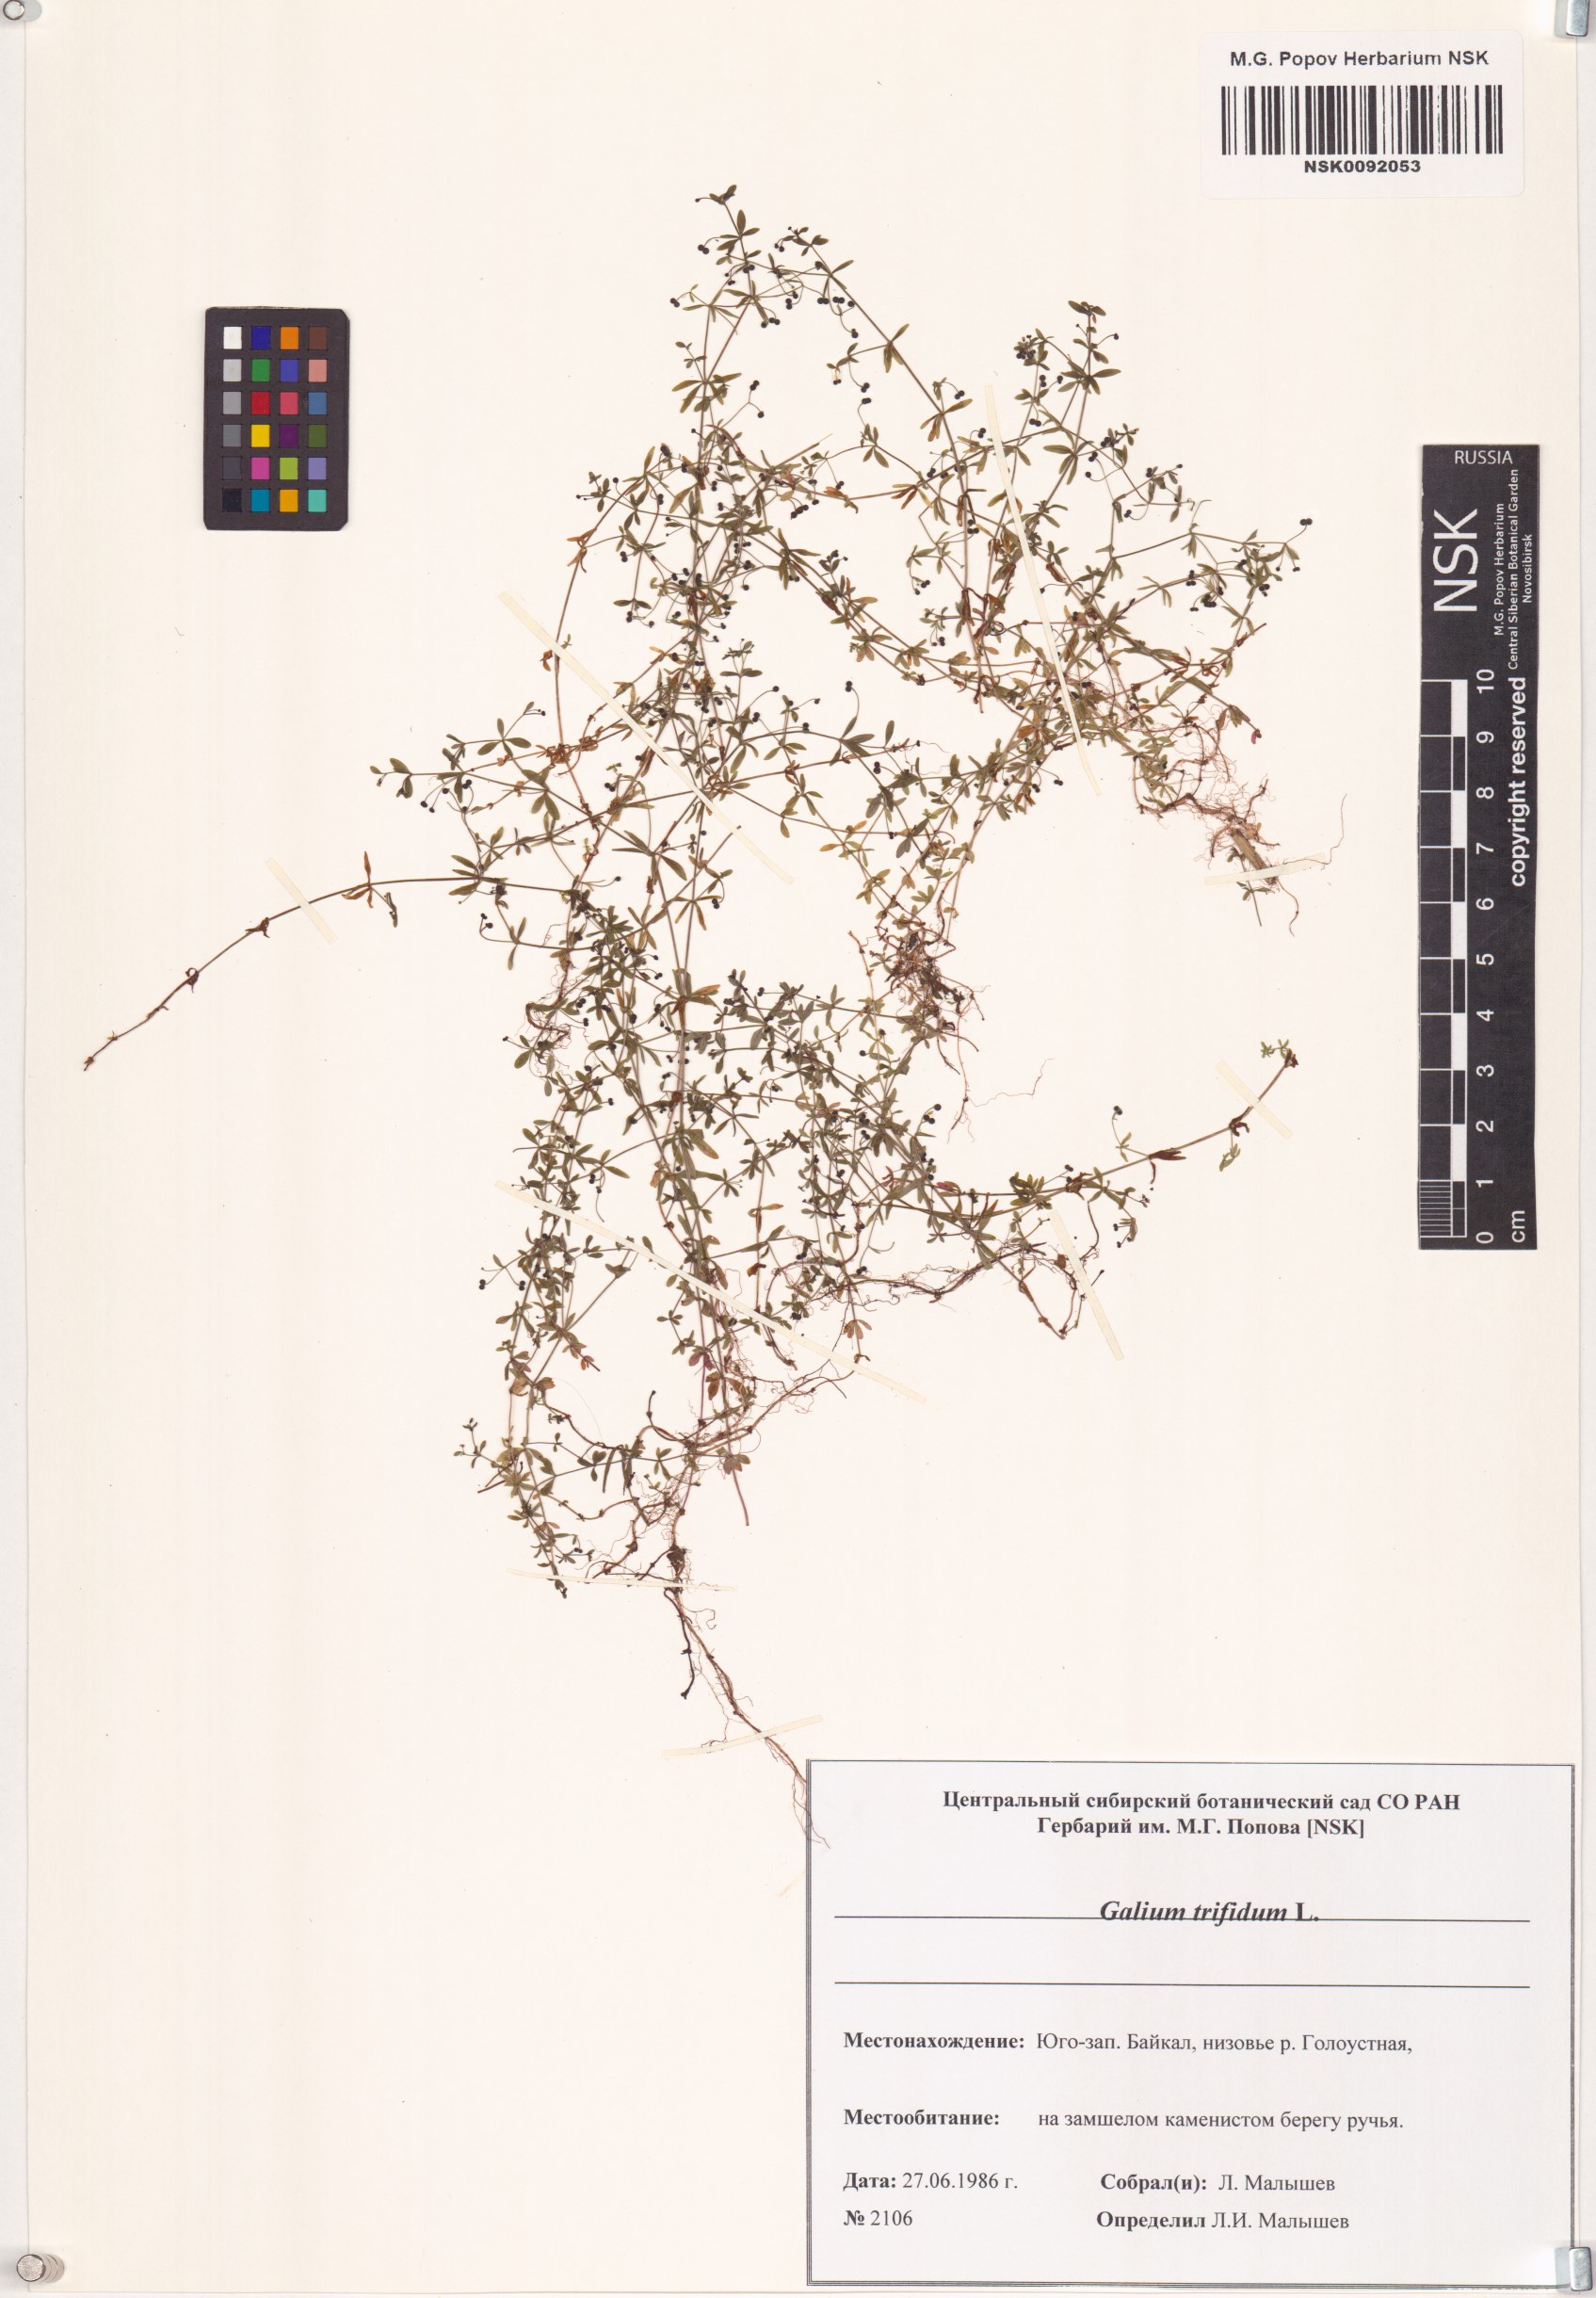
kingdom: Plantae
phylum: Tracheophyta
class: Magnoliopsida
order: Gentianales
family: Rubiaceae
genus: Galium
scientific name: Galium trifidum
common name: Small bedstraw
